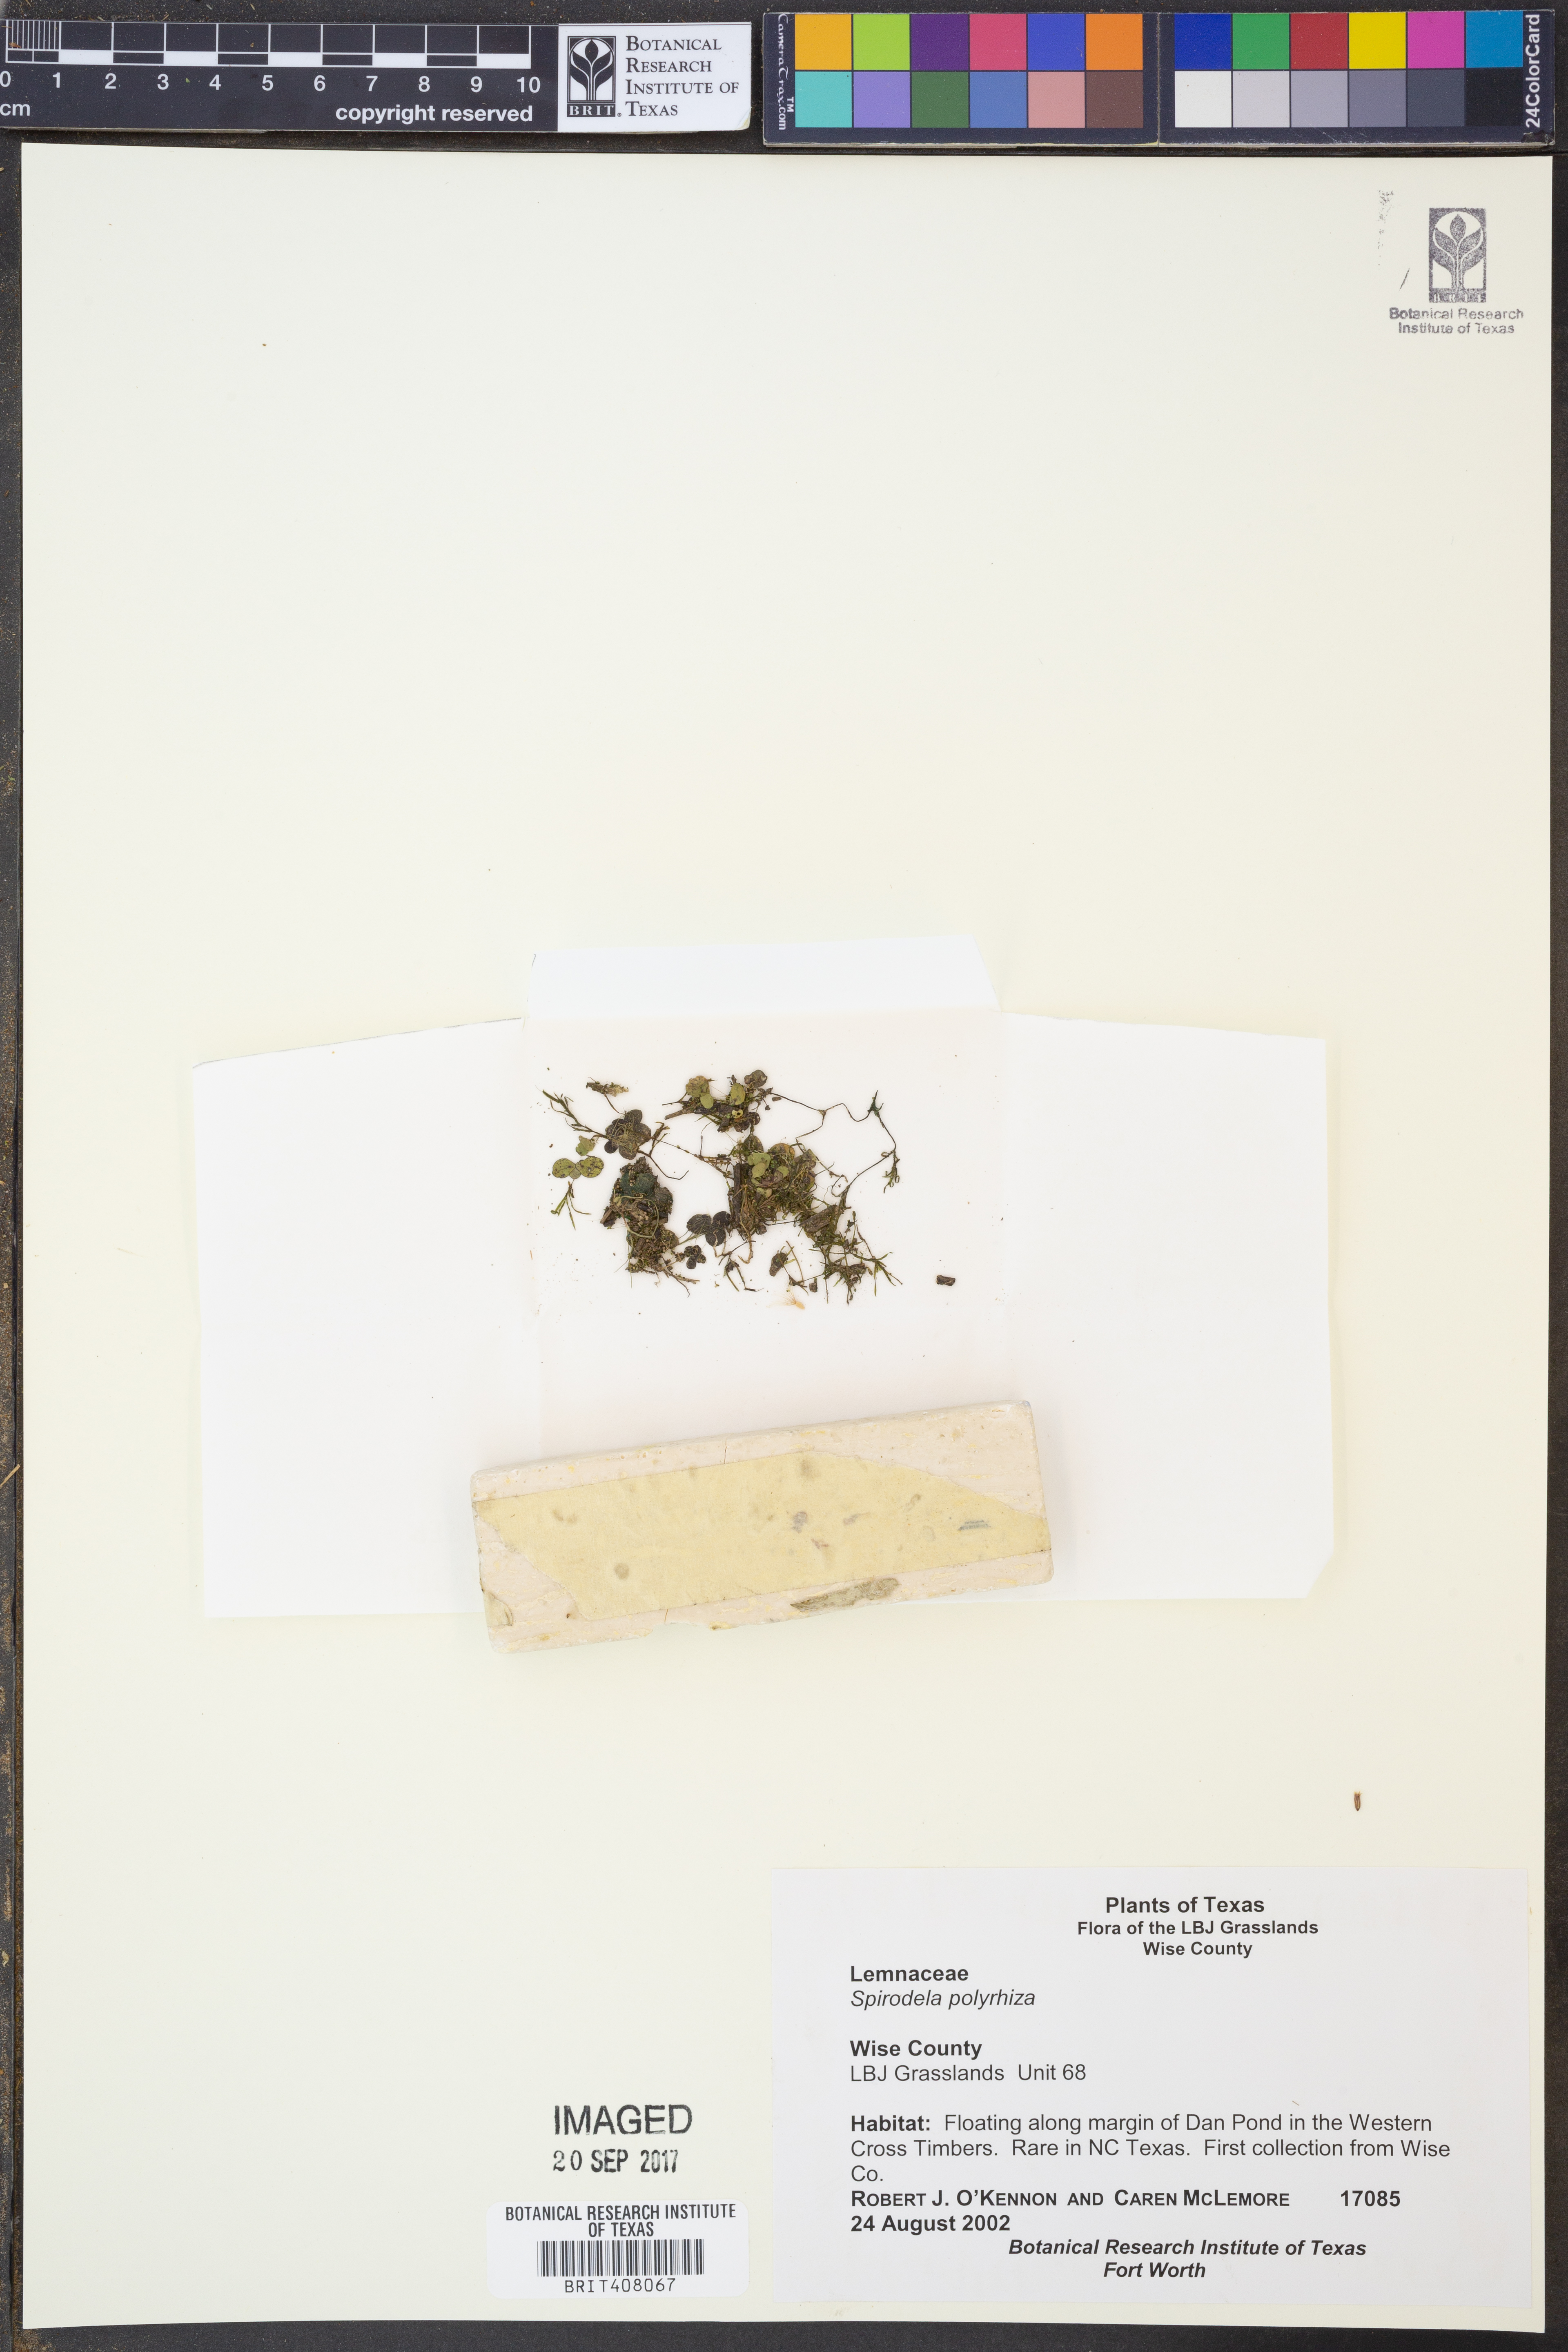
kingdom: Plantae
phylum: Tracheophyta
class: Liliopsida
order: Alismatales
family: Araceae
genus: Spirodela
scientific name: Spirodela polyrhiza
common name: Great duckweed
